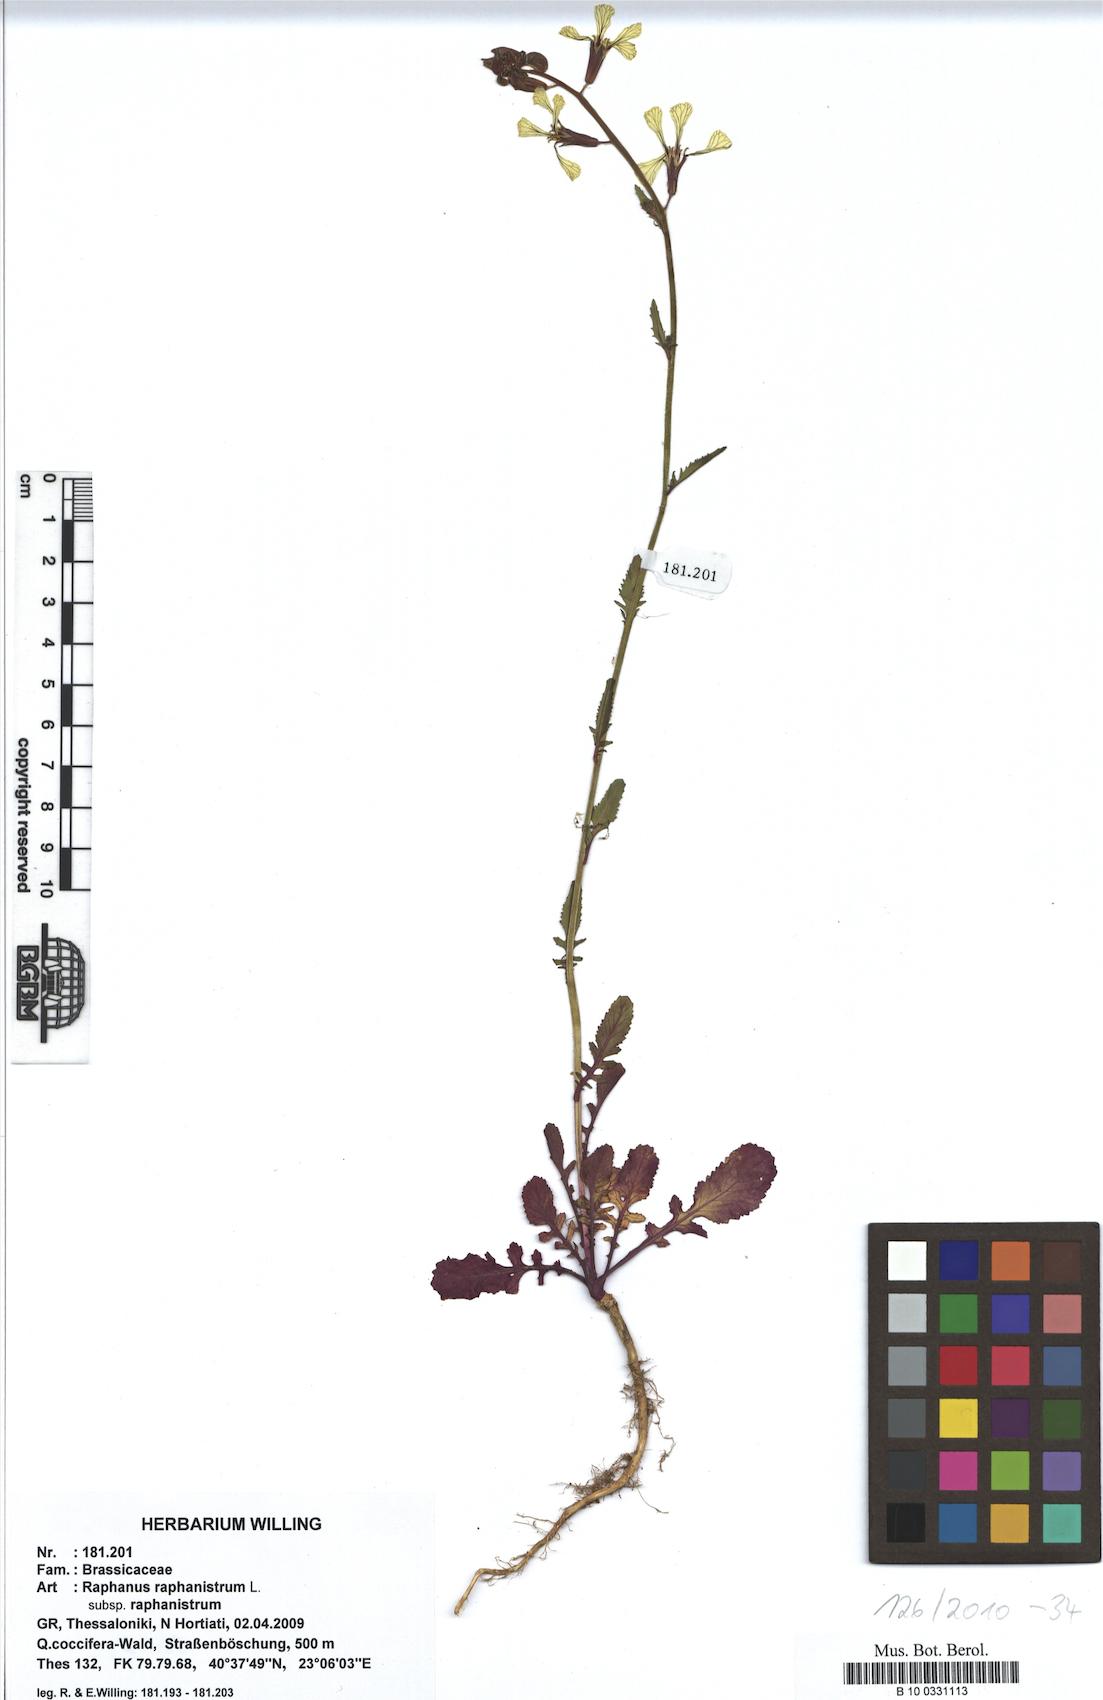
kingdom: Plantae
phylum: Tracheophyta
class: Magnoliopsida
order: Brassicales
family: Brassicaceae
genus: Raphanus
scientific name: Raphanus raphanistrum
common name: Wild radish
